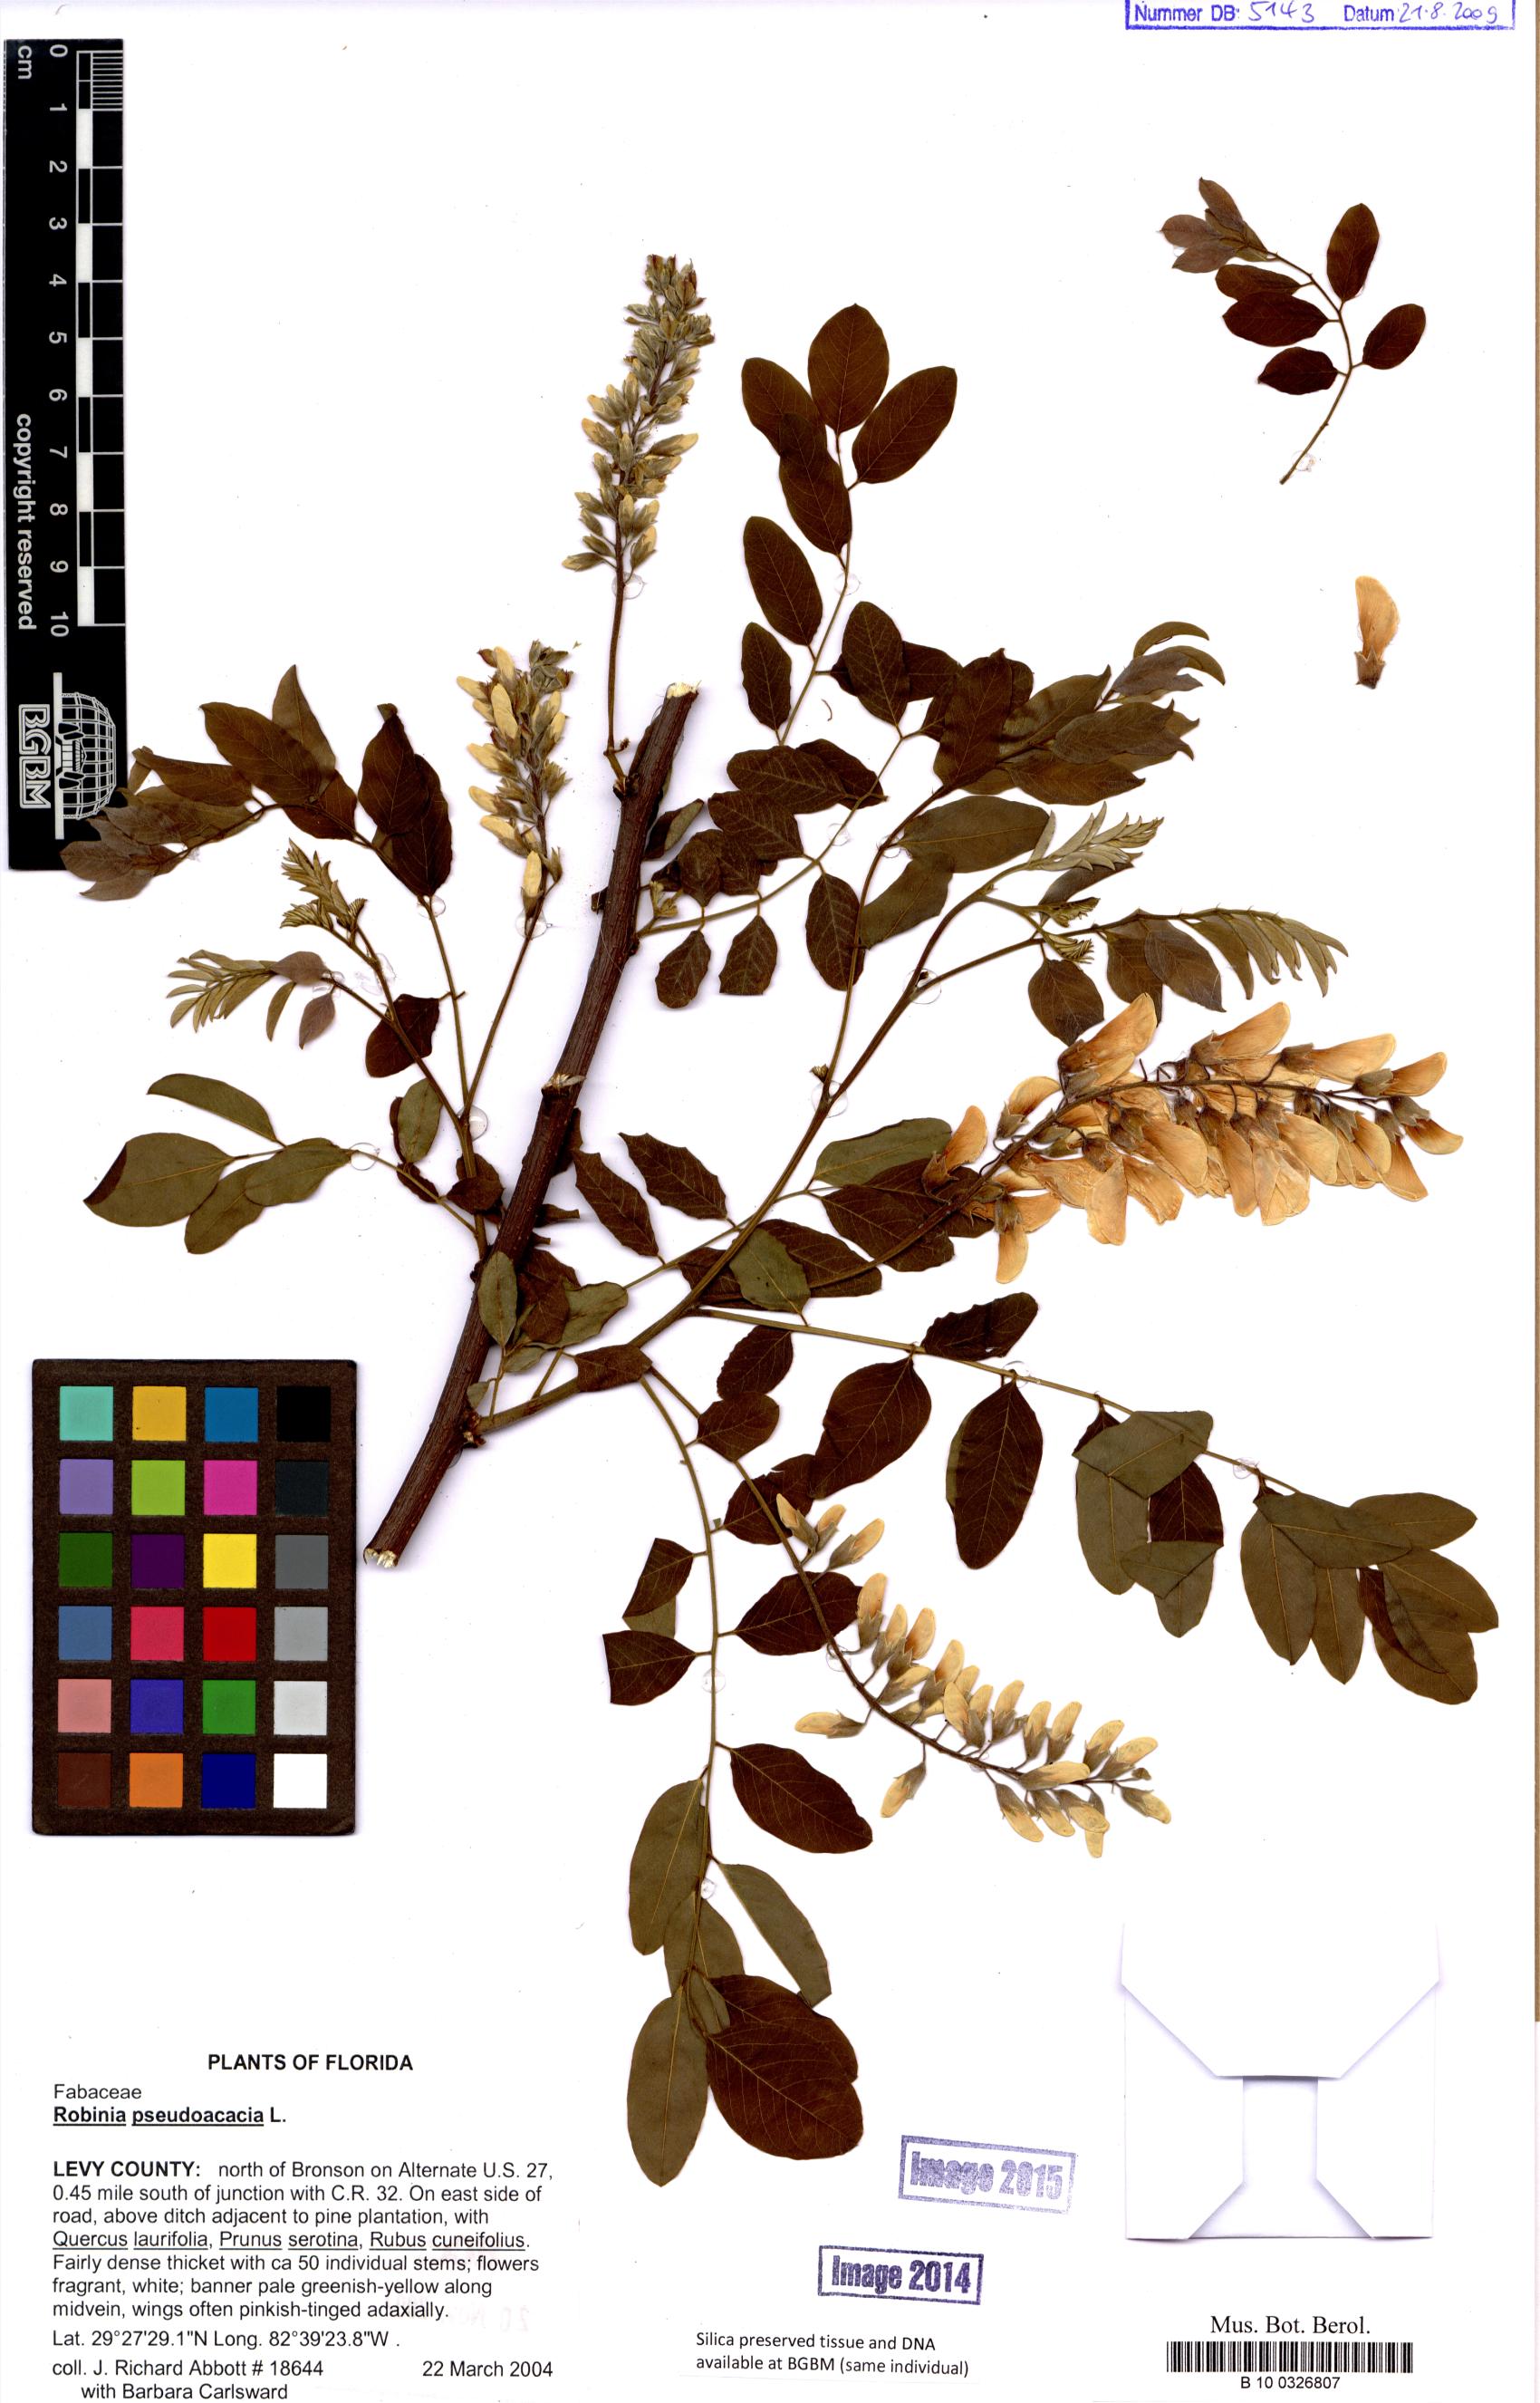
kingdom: Plantae
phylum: Tracheophyta
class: Magnoliopsida
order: Fabales
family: Fabaceae
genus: Robinia
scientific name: Robinia pseudoacacia
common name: Black locust
